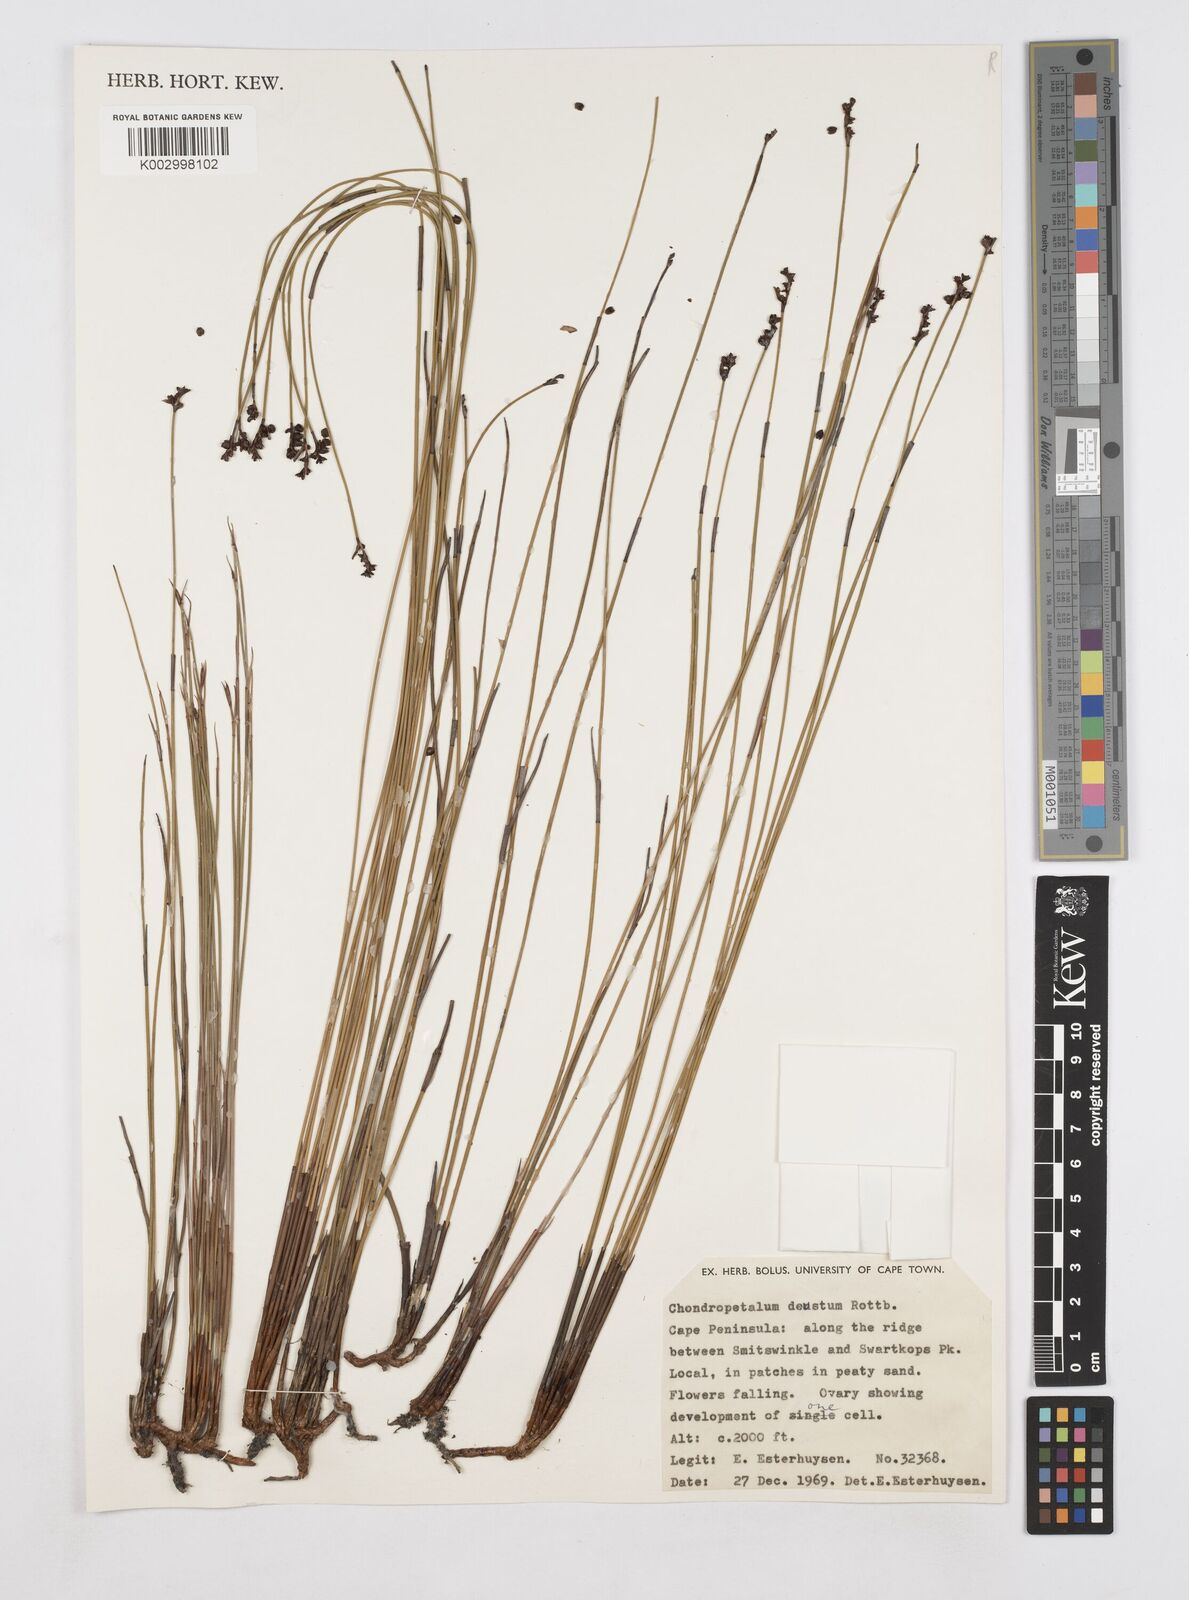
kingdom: Plantae
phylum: Tracheophyta
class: Liliopsida
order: Poales
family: Restionaceae
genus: Elegia
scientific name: Elegia deusta
